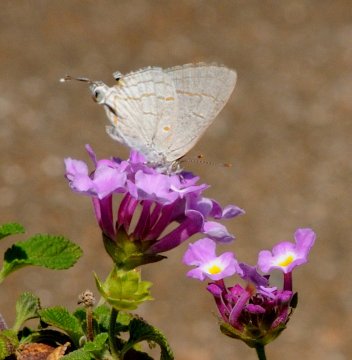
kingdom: Animalia
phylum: Arthropoda
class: Insecta
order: Lepidoptera
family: Lycaenidae
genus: Hypolycaena
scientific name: Hypolycaena philippus
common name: Common Hairstreak
